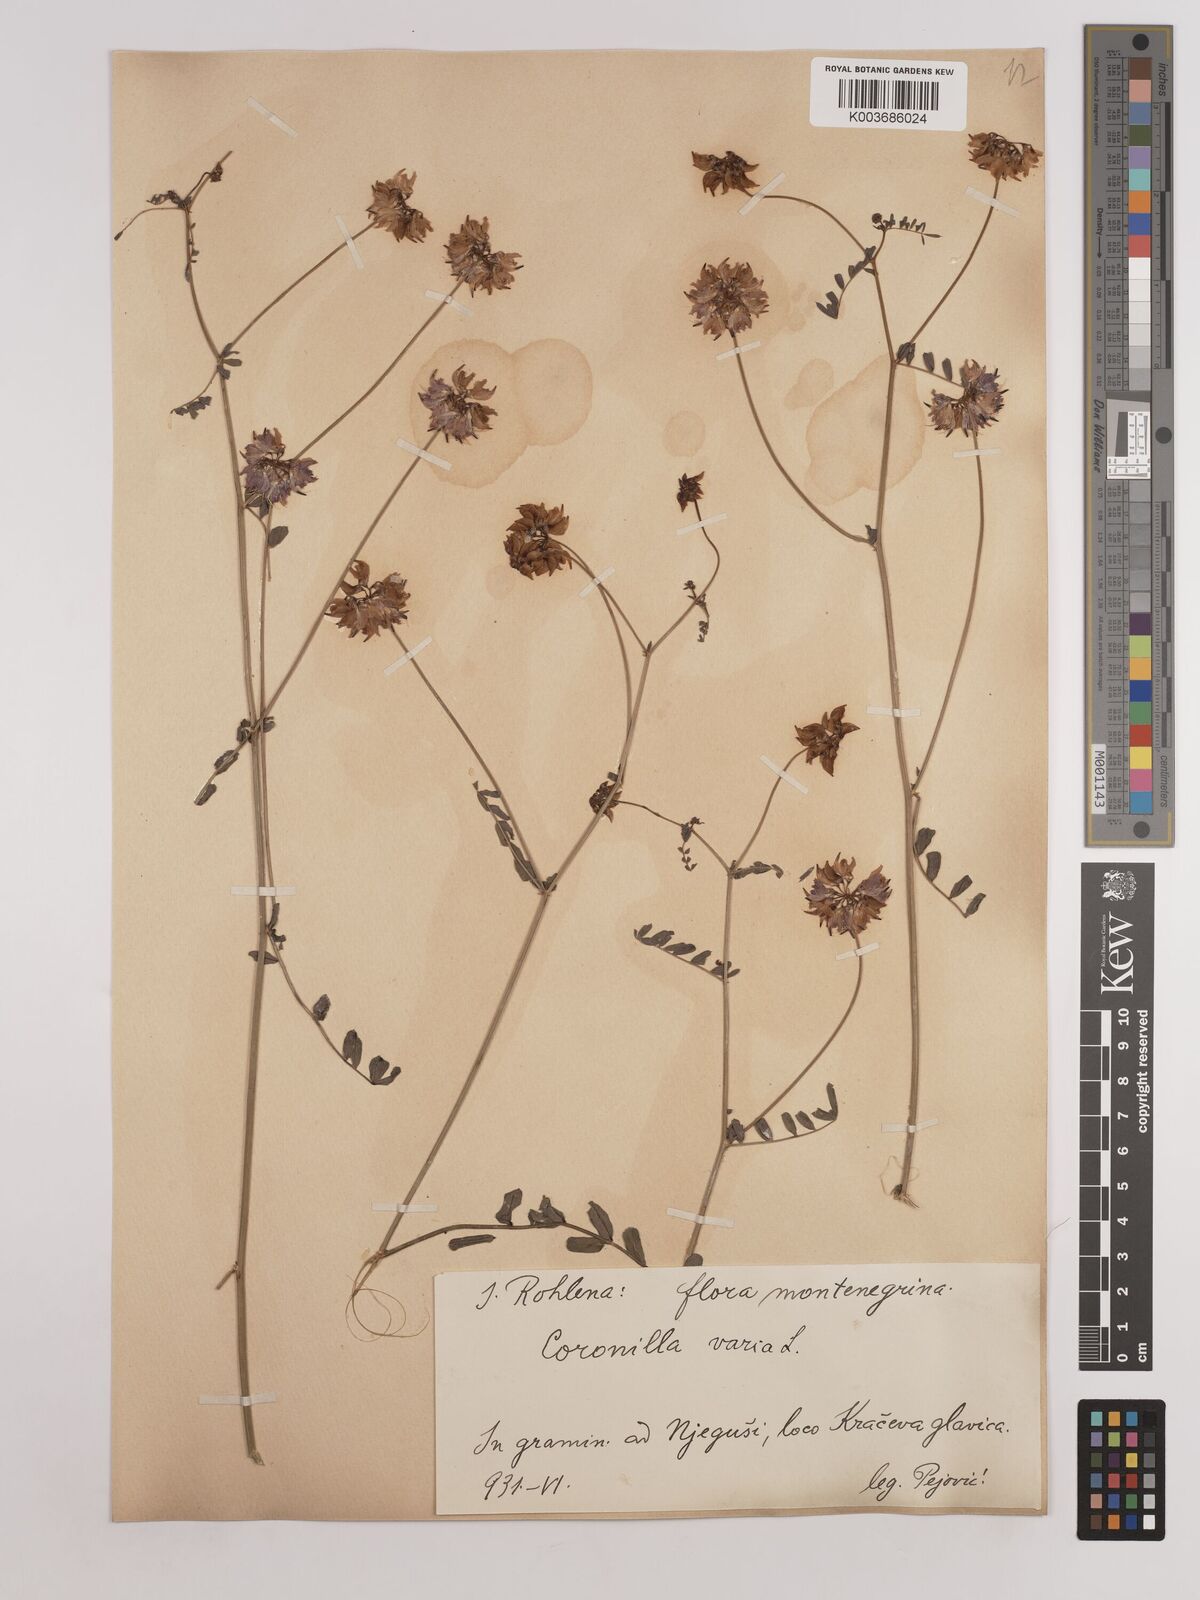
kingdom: Plantae
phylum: Tracheophyta
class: Magnoliopsida
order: Fabales
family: Fabaceae
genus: Coronilla
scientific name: Coronilla varia
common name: Crownvetch
